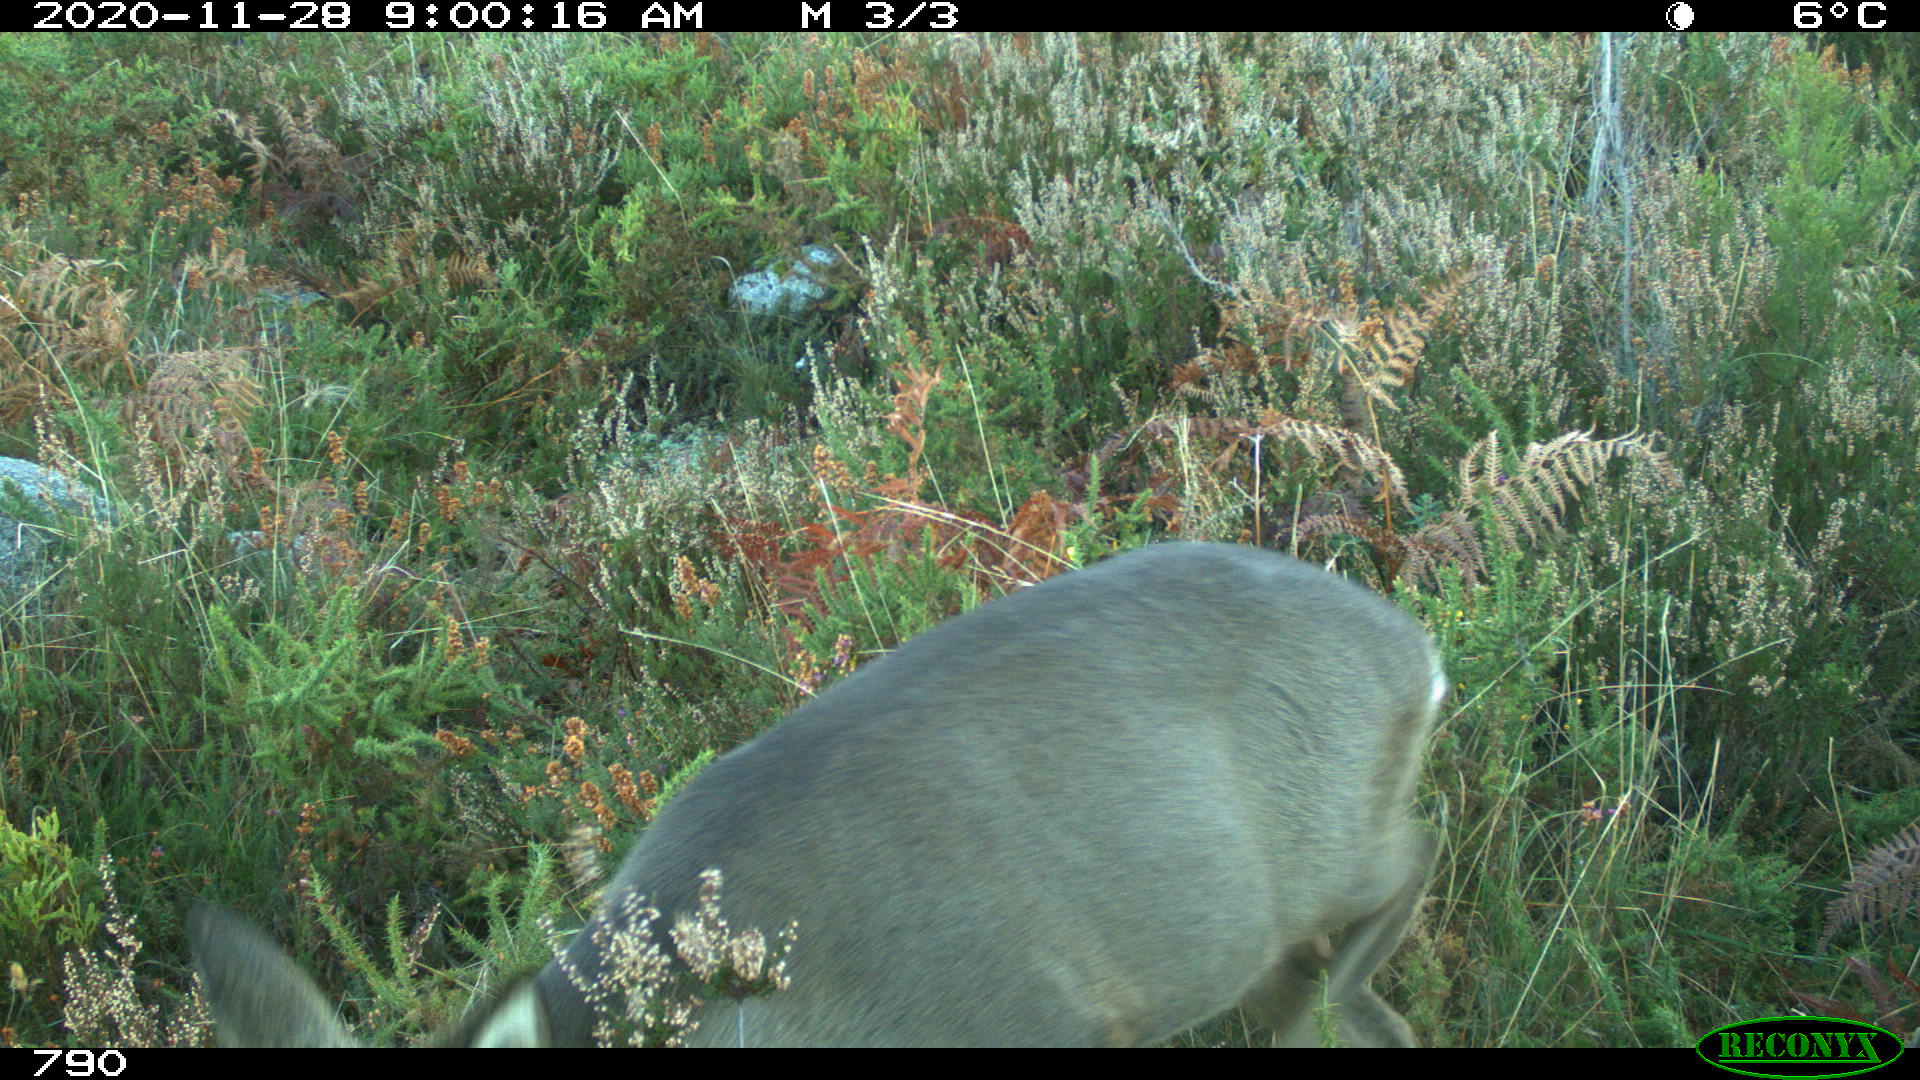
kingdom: Animalia
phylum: Chordata
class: Mammalia
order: Artiodactyla
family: Cervidae
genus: Capreolus
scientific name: Capreolus capreolus
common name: Western roe deer
